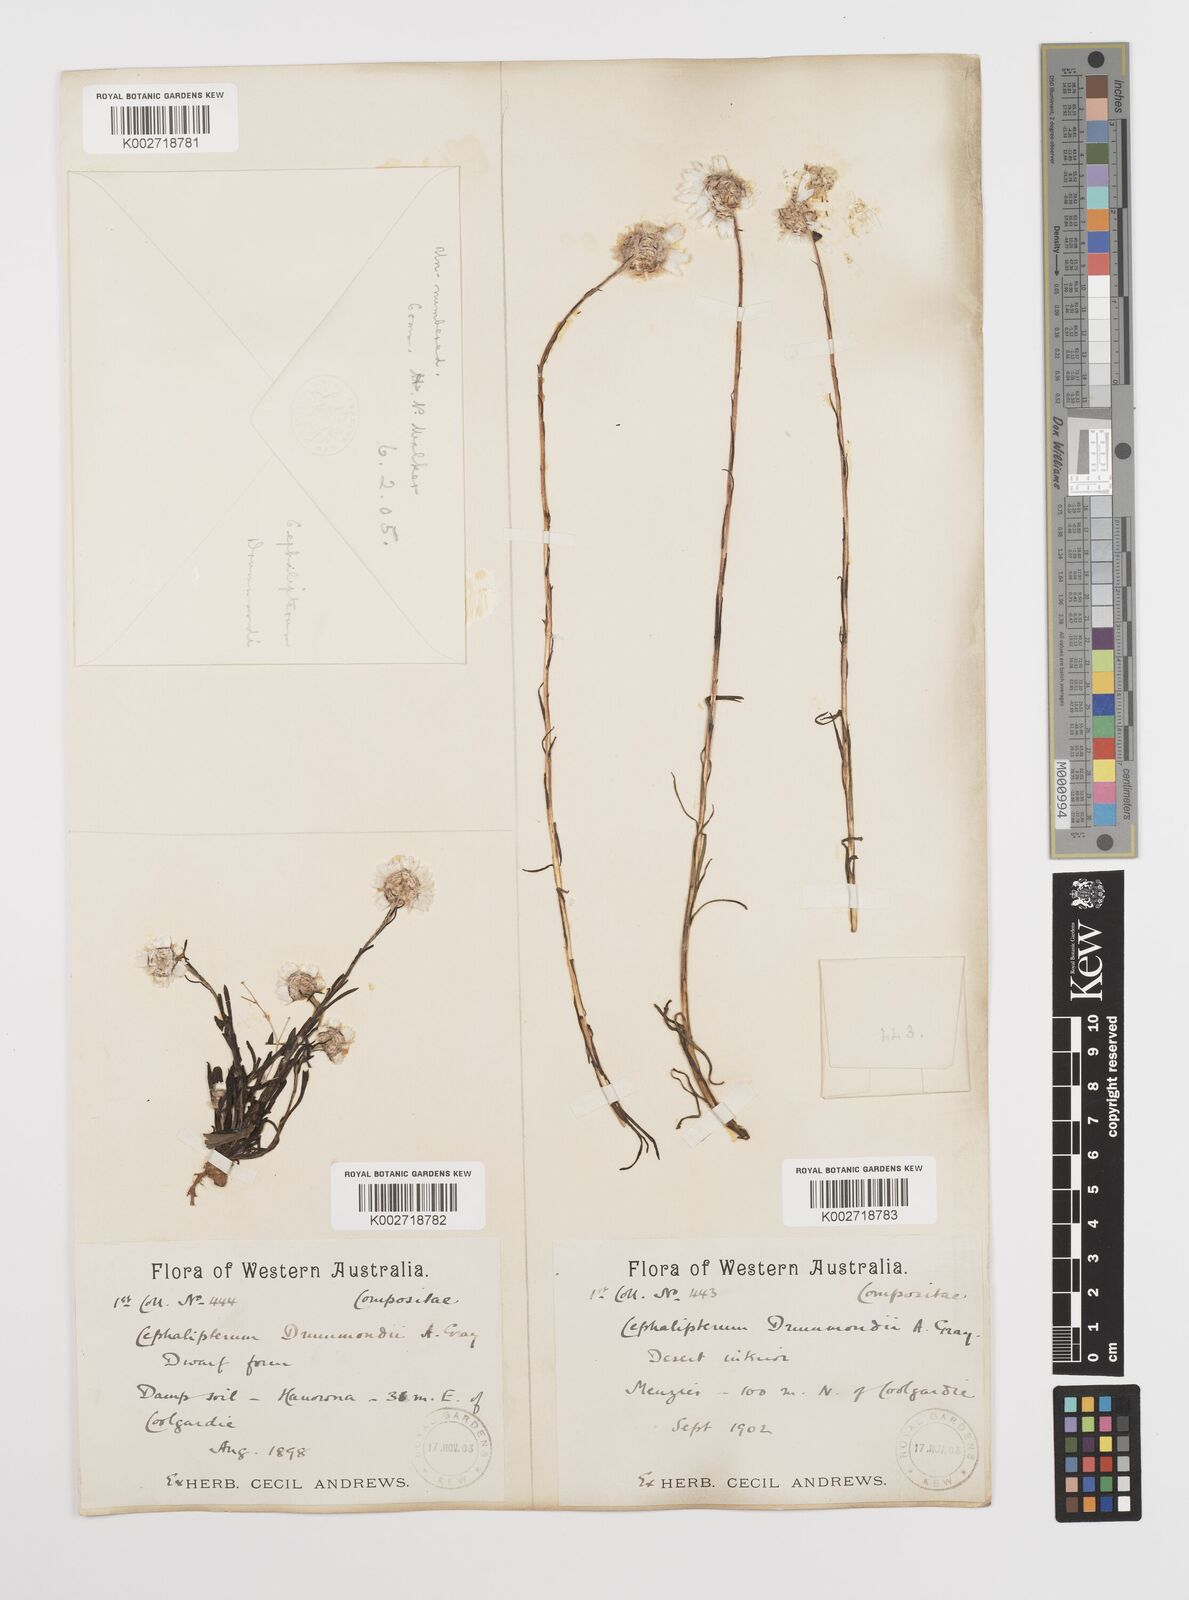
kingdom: Plantae
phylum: Tracheophyta
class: Magnoliopsida
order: Asterales
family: Asteraceae
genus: Cephalipterum
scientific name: Cephalipterum drummondii
